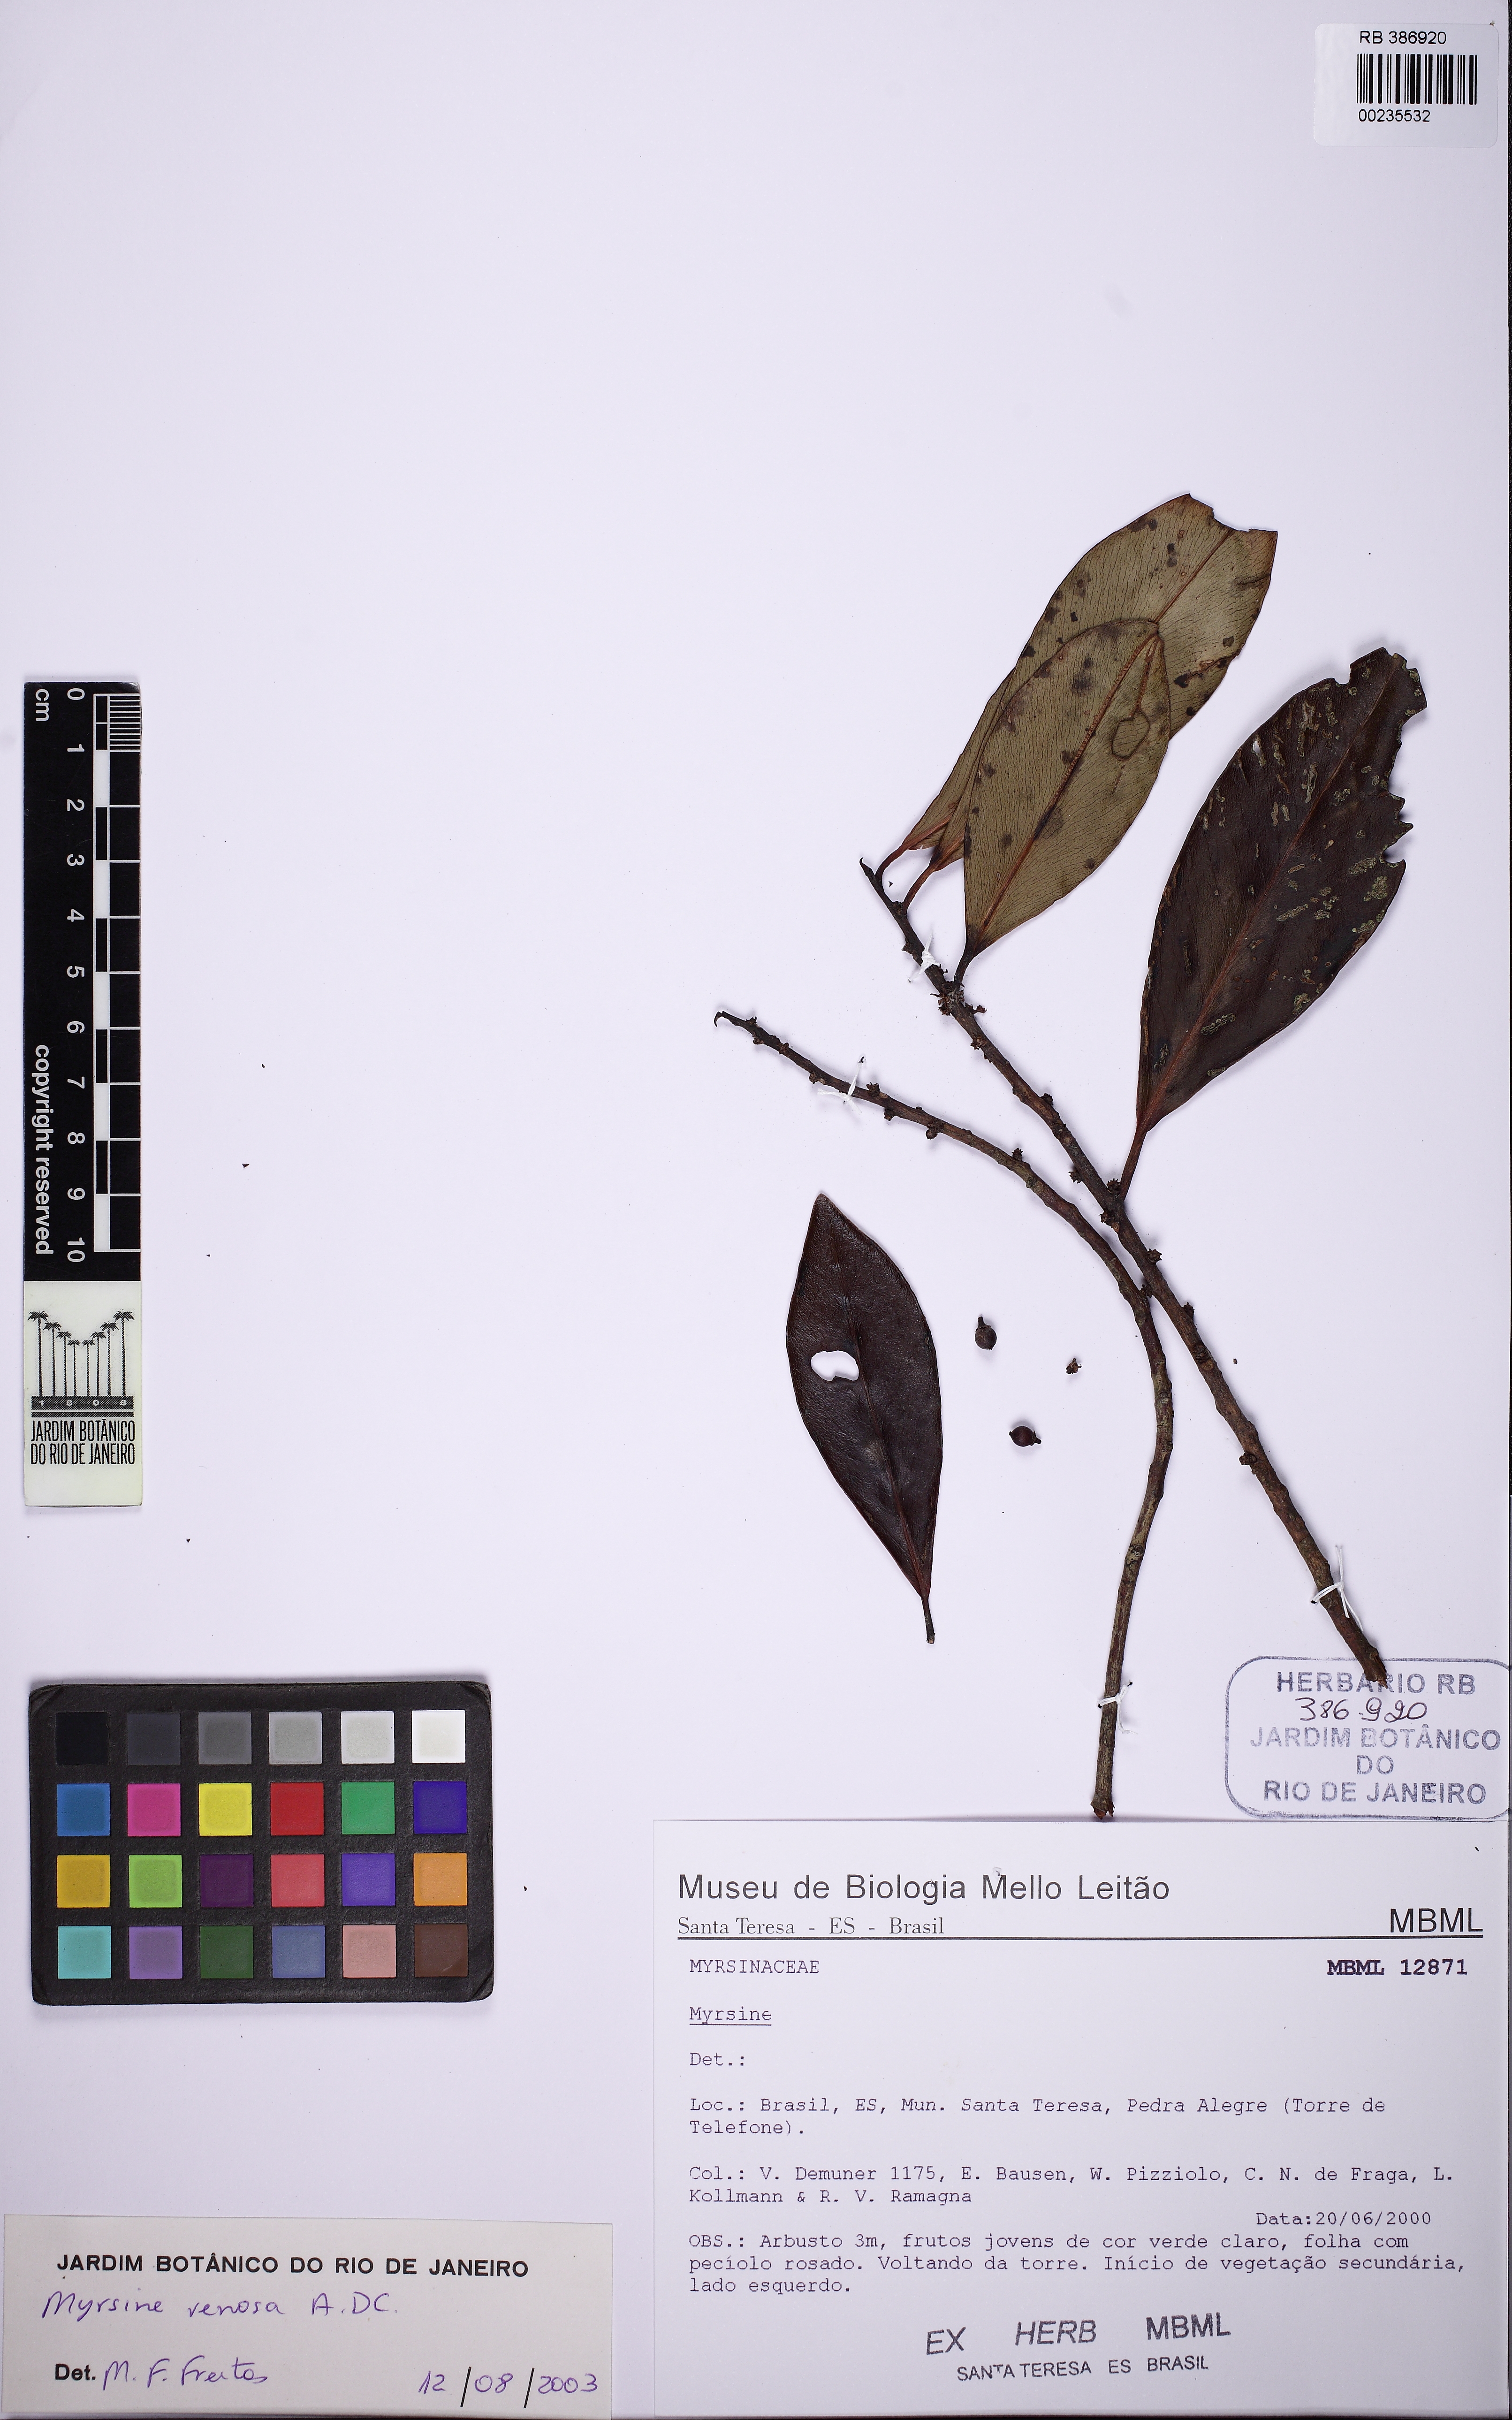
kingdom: Plantae
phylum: Tracheophyta
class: Magnoliopsida
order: Ericales
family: Primulaceae
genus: Myrsine
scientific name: Myrsine venosa
